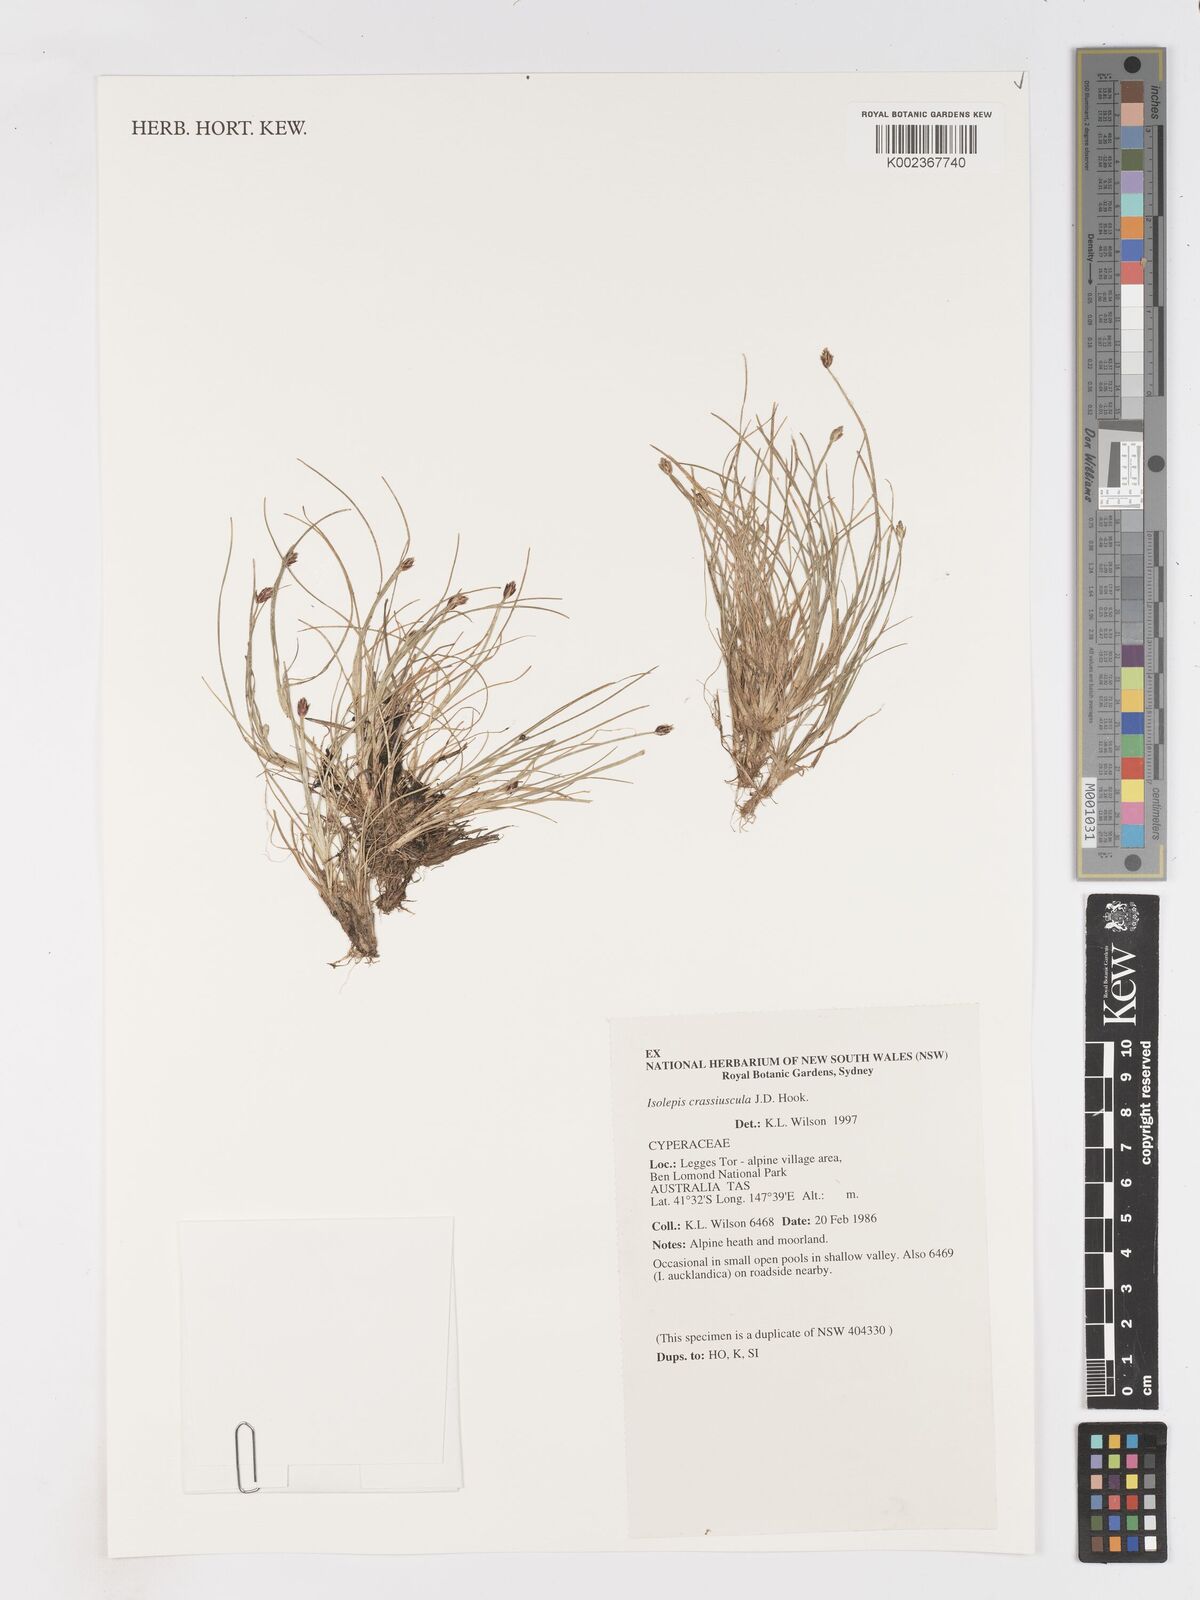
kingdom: Plantae
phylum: Tracheophyta
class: Liliopsida
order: Poales
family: Cyperaceae
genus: Isolepis
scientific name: Isolepis crassiuscula
